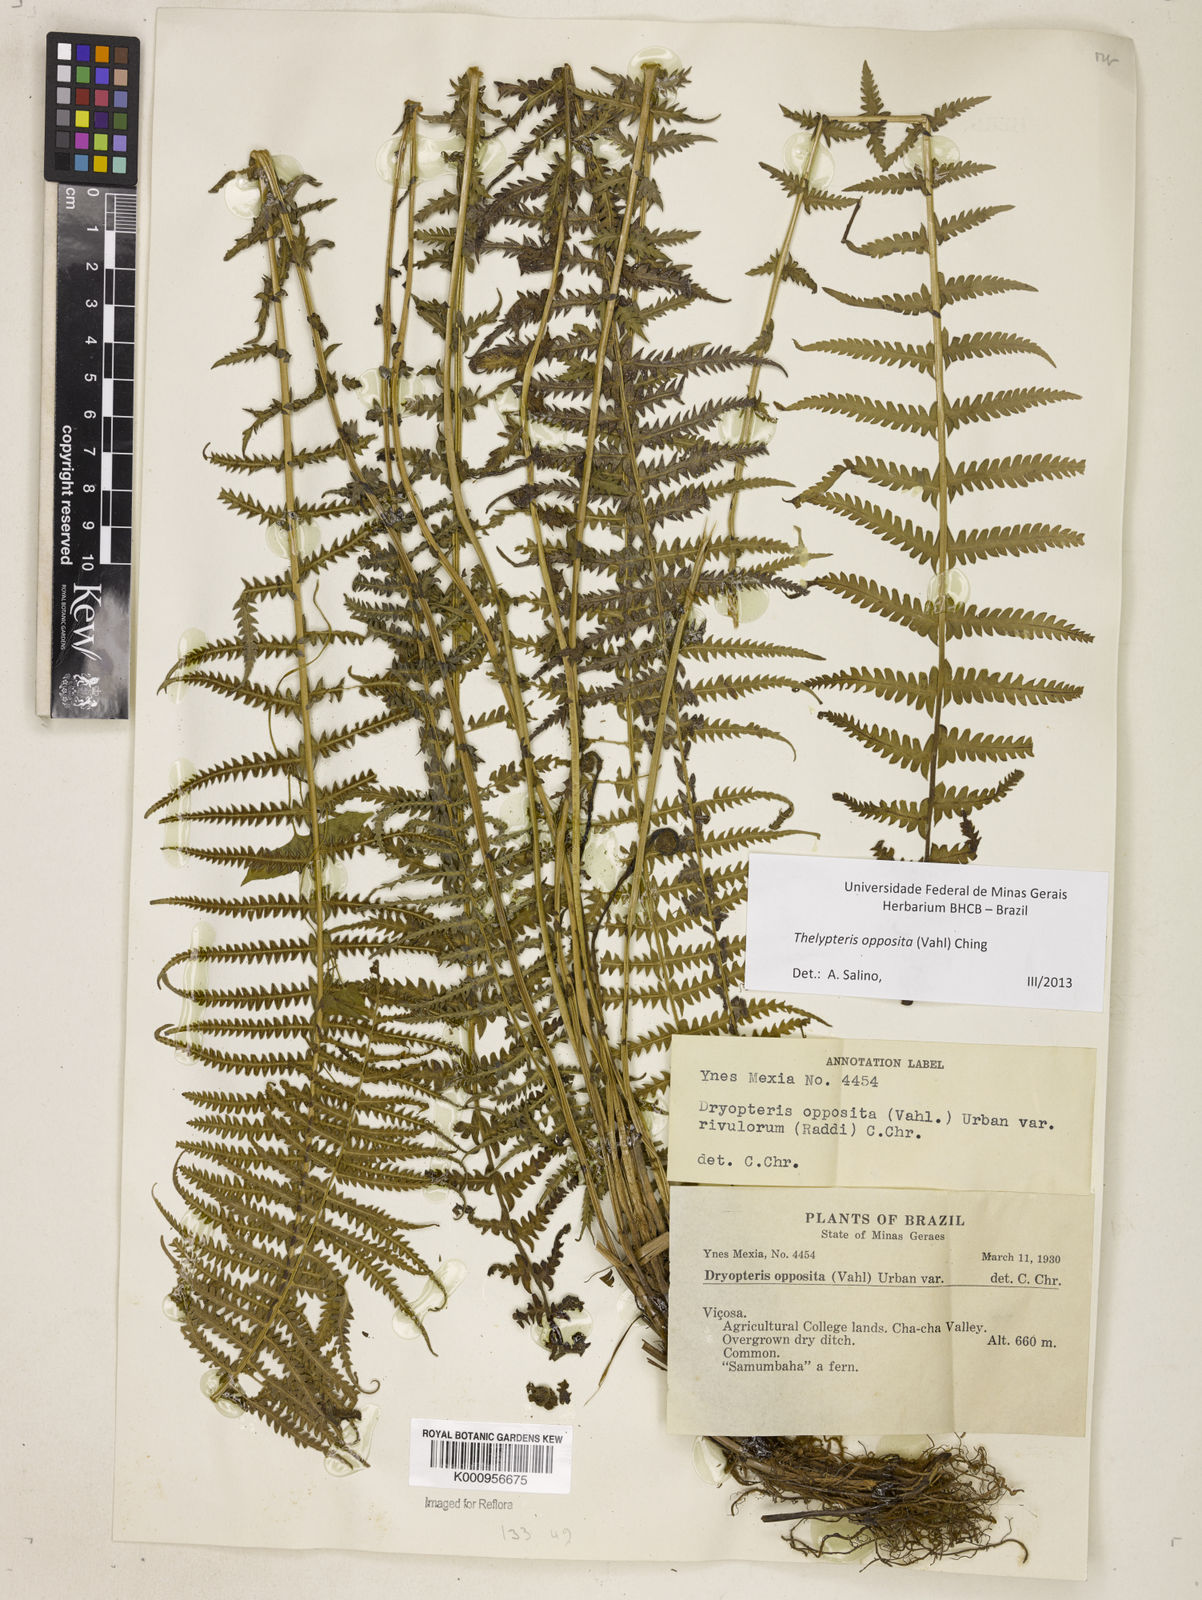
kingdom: Plantae
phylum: Tracheophyta
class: Polypodiopsida
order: Polypodiales
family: Thelypteridaceae
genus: Amauropelta
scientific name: Amauropelta opposita
